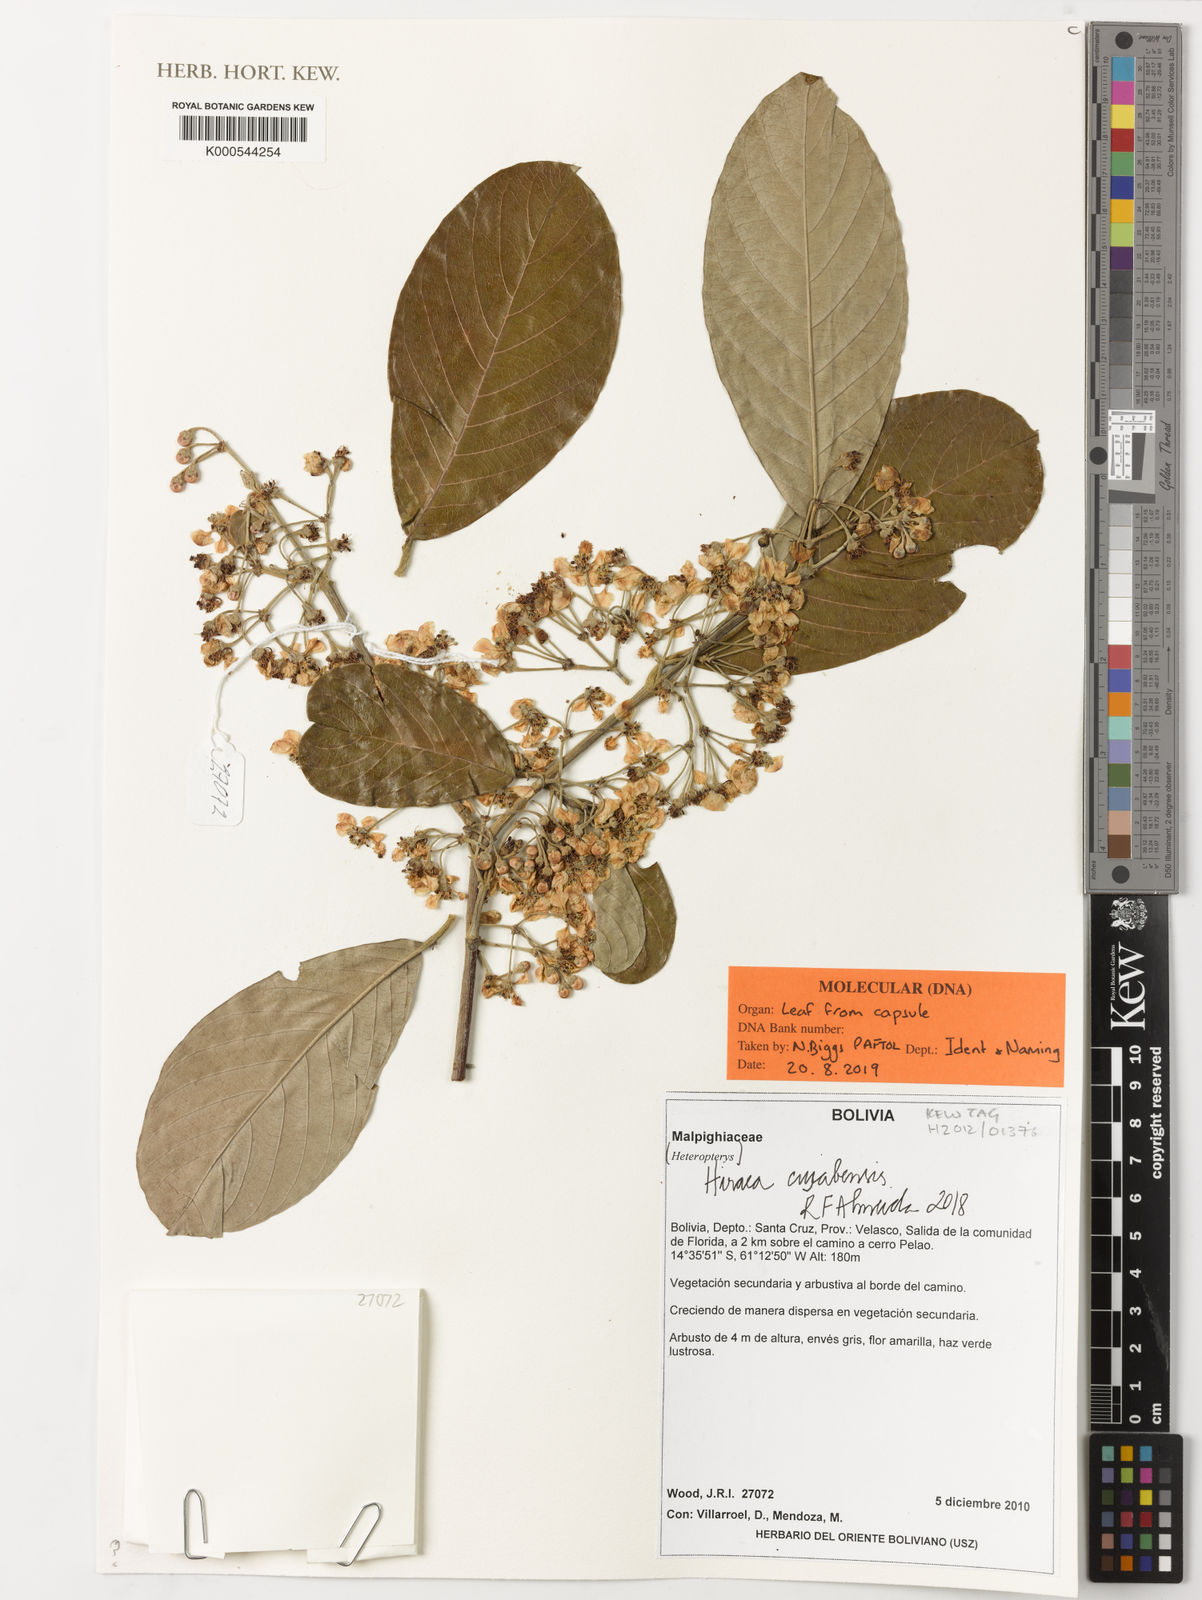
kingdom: Plantae
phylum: Tracheophyta
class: Magnoliopsida
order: Malpighiales
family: Malpighiaceae
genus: Hiraea
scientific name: Hiraea cuiabensis
